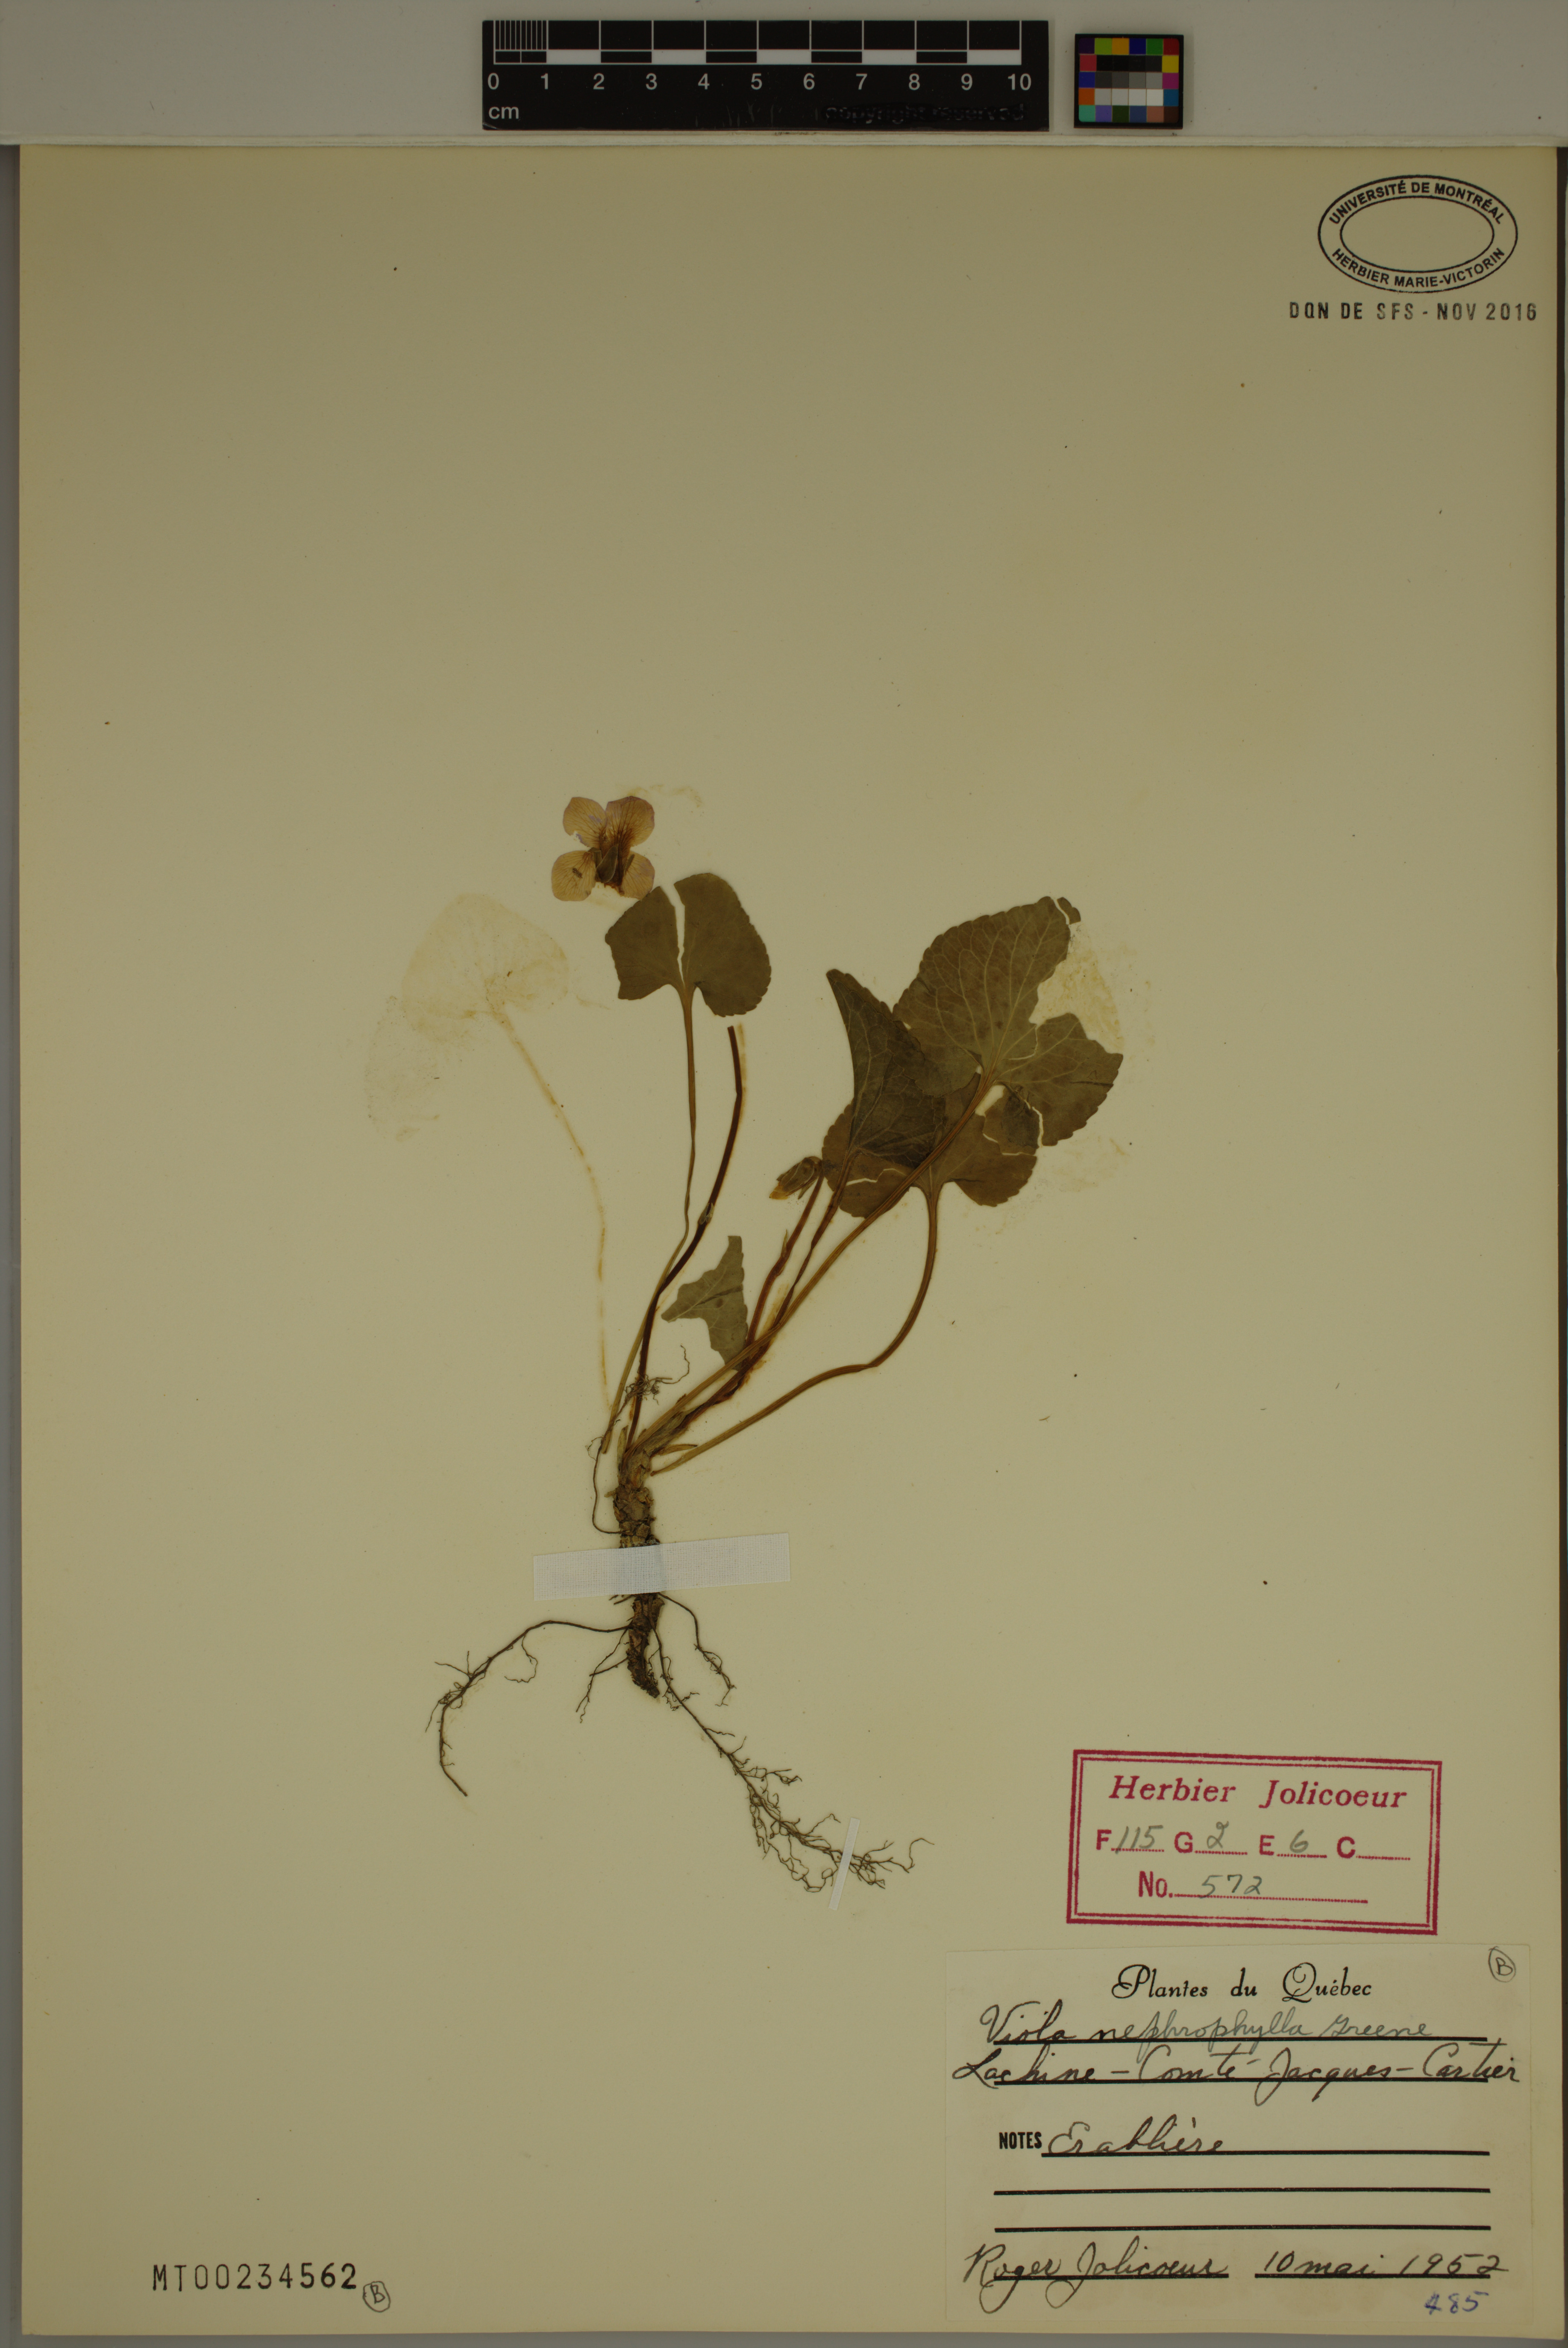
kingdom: Plantae
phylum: Tracheophyta
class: Magnoliopsida
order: Malpighiales
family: Violaceae
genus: Viola
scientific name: Viola nephrophylla
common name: Blue meadow violet
